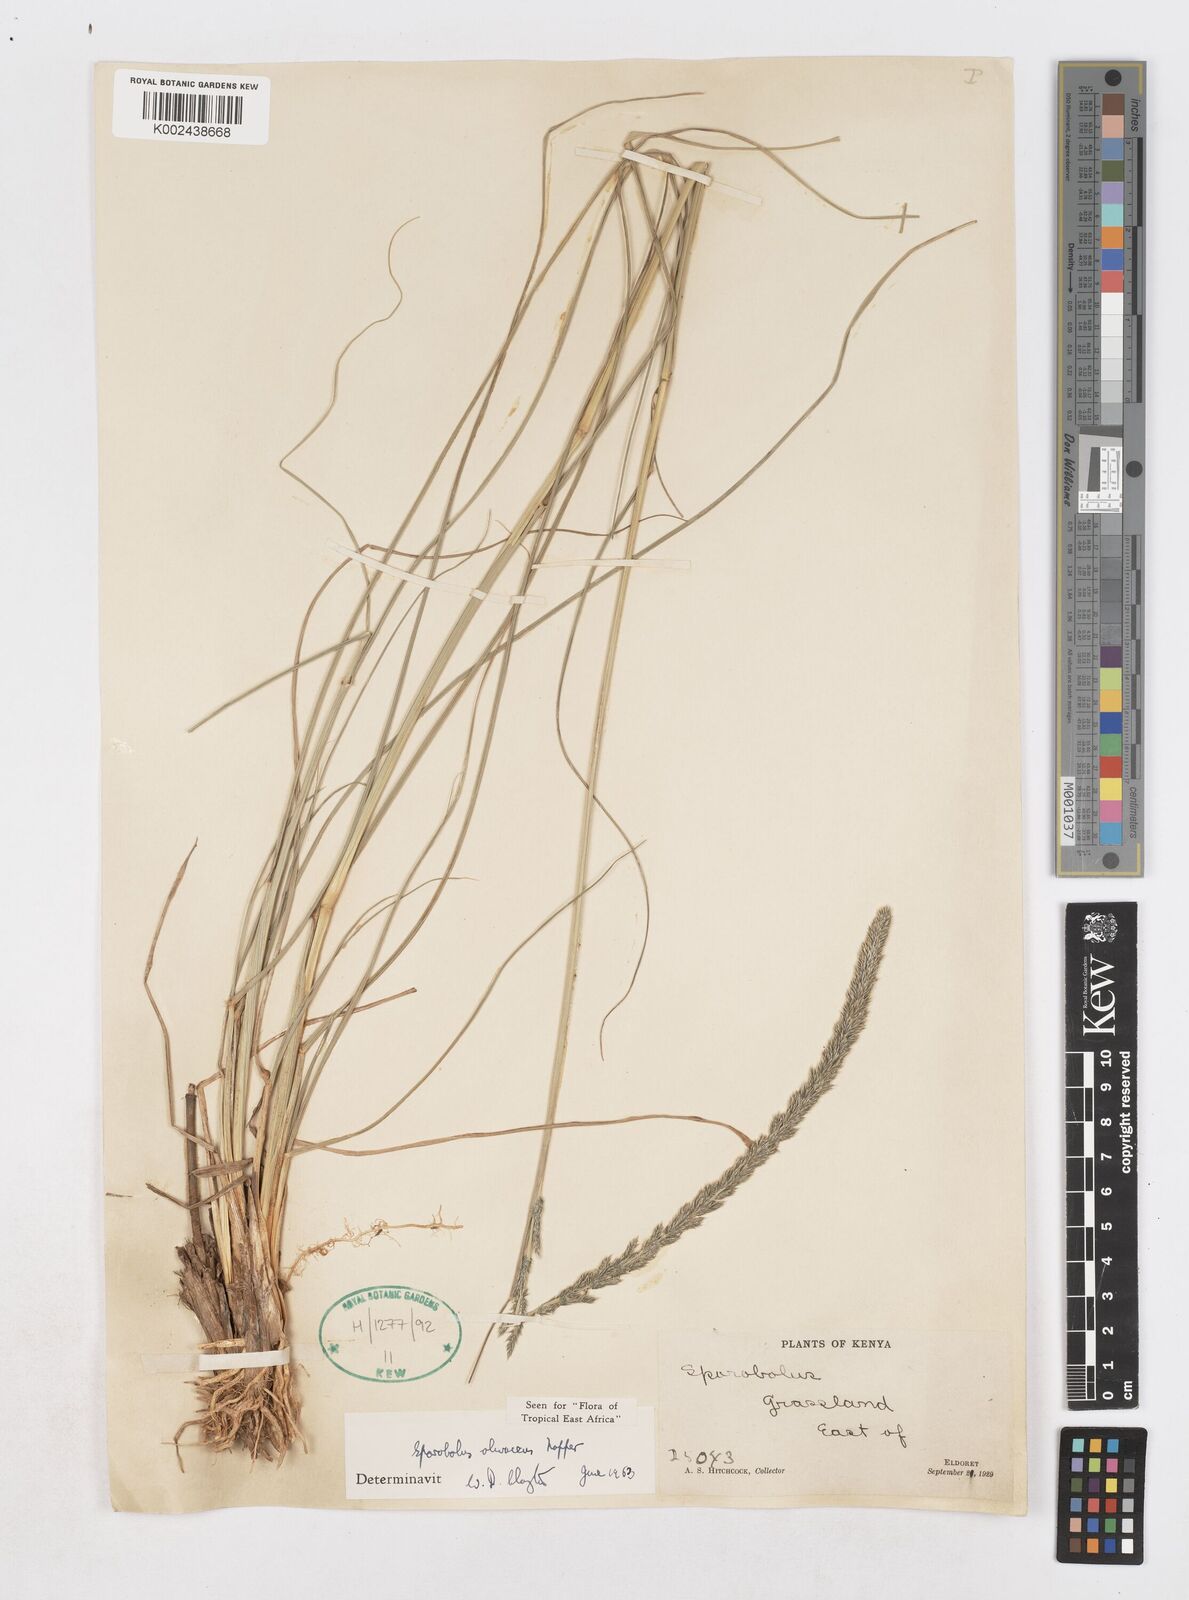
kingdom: Plantae
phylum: Tracheophyta
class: Liliopsida
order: Poales
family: Poaceae
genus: Sporobolus
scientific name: Sporobolus olivaceus
